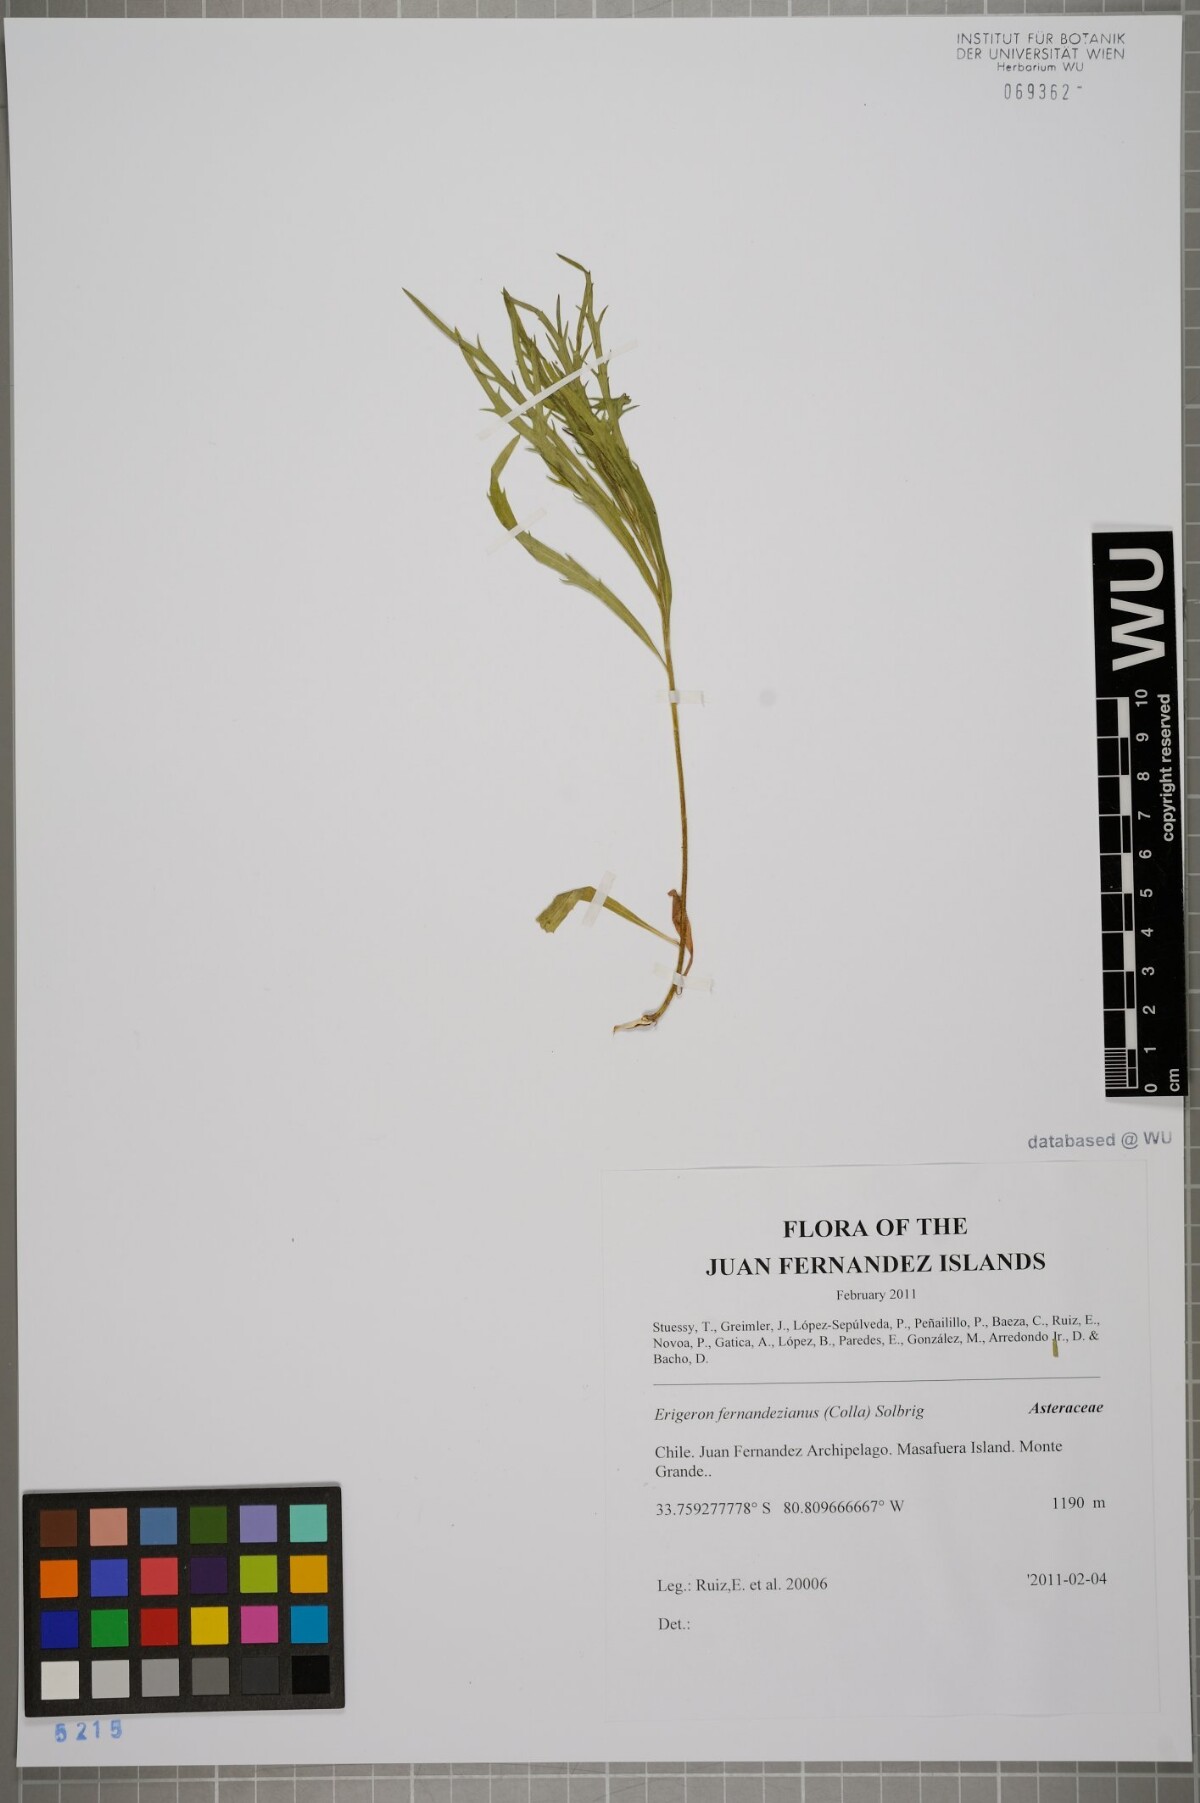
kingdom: Plantae
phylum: Tracheophyta
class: Magnoliopsida
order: Asterales
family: Asteraceae
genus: Erigeron
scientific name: Erigeron fernandezianus
